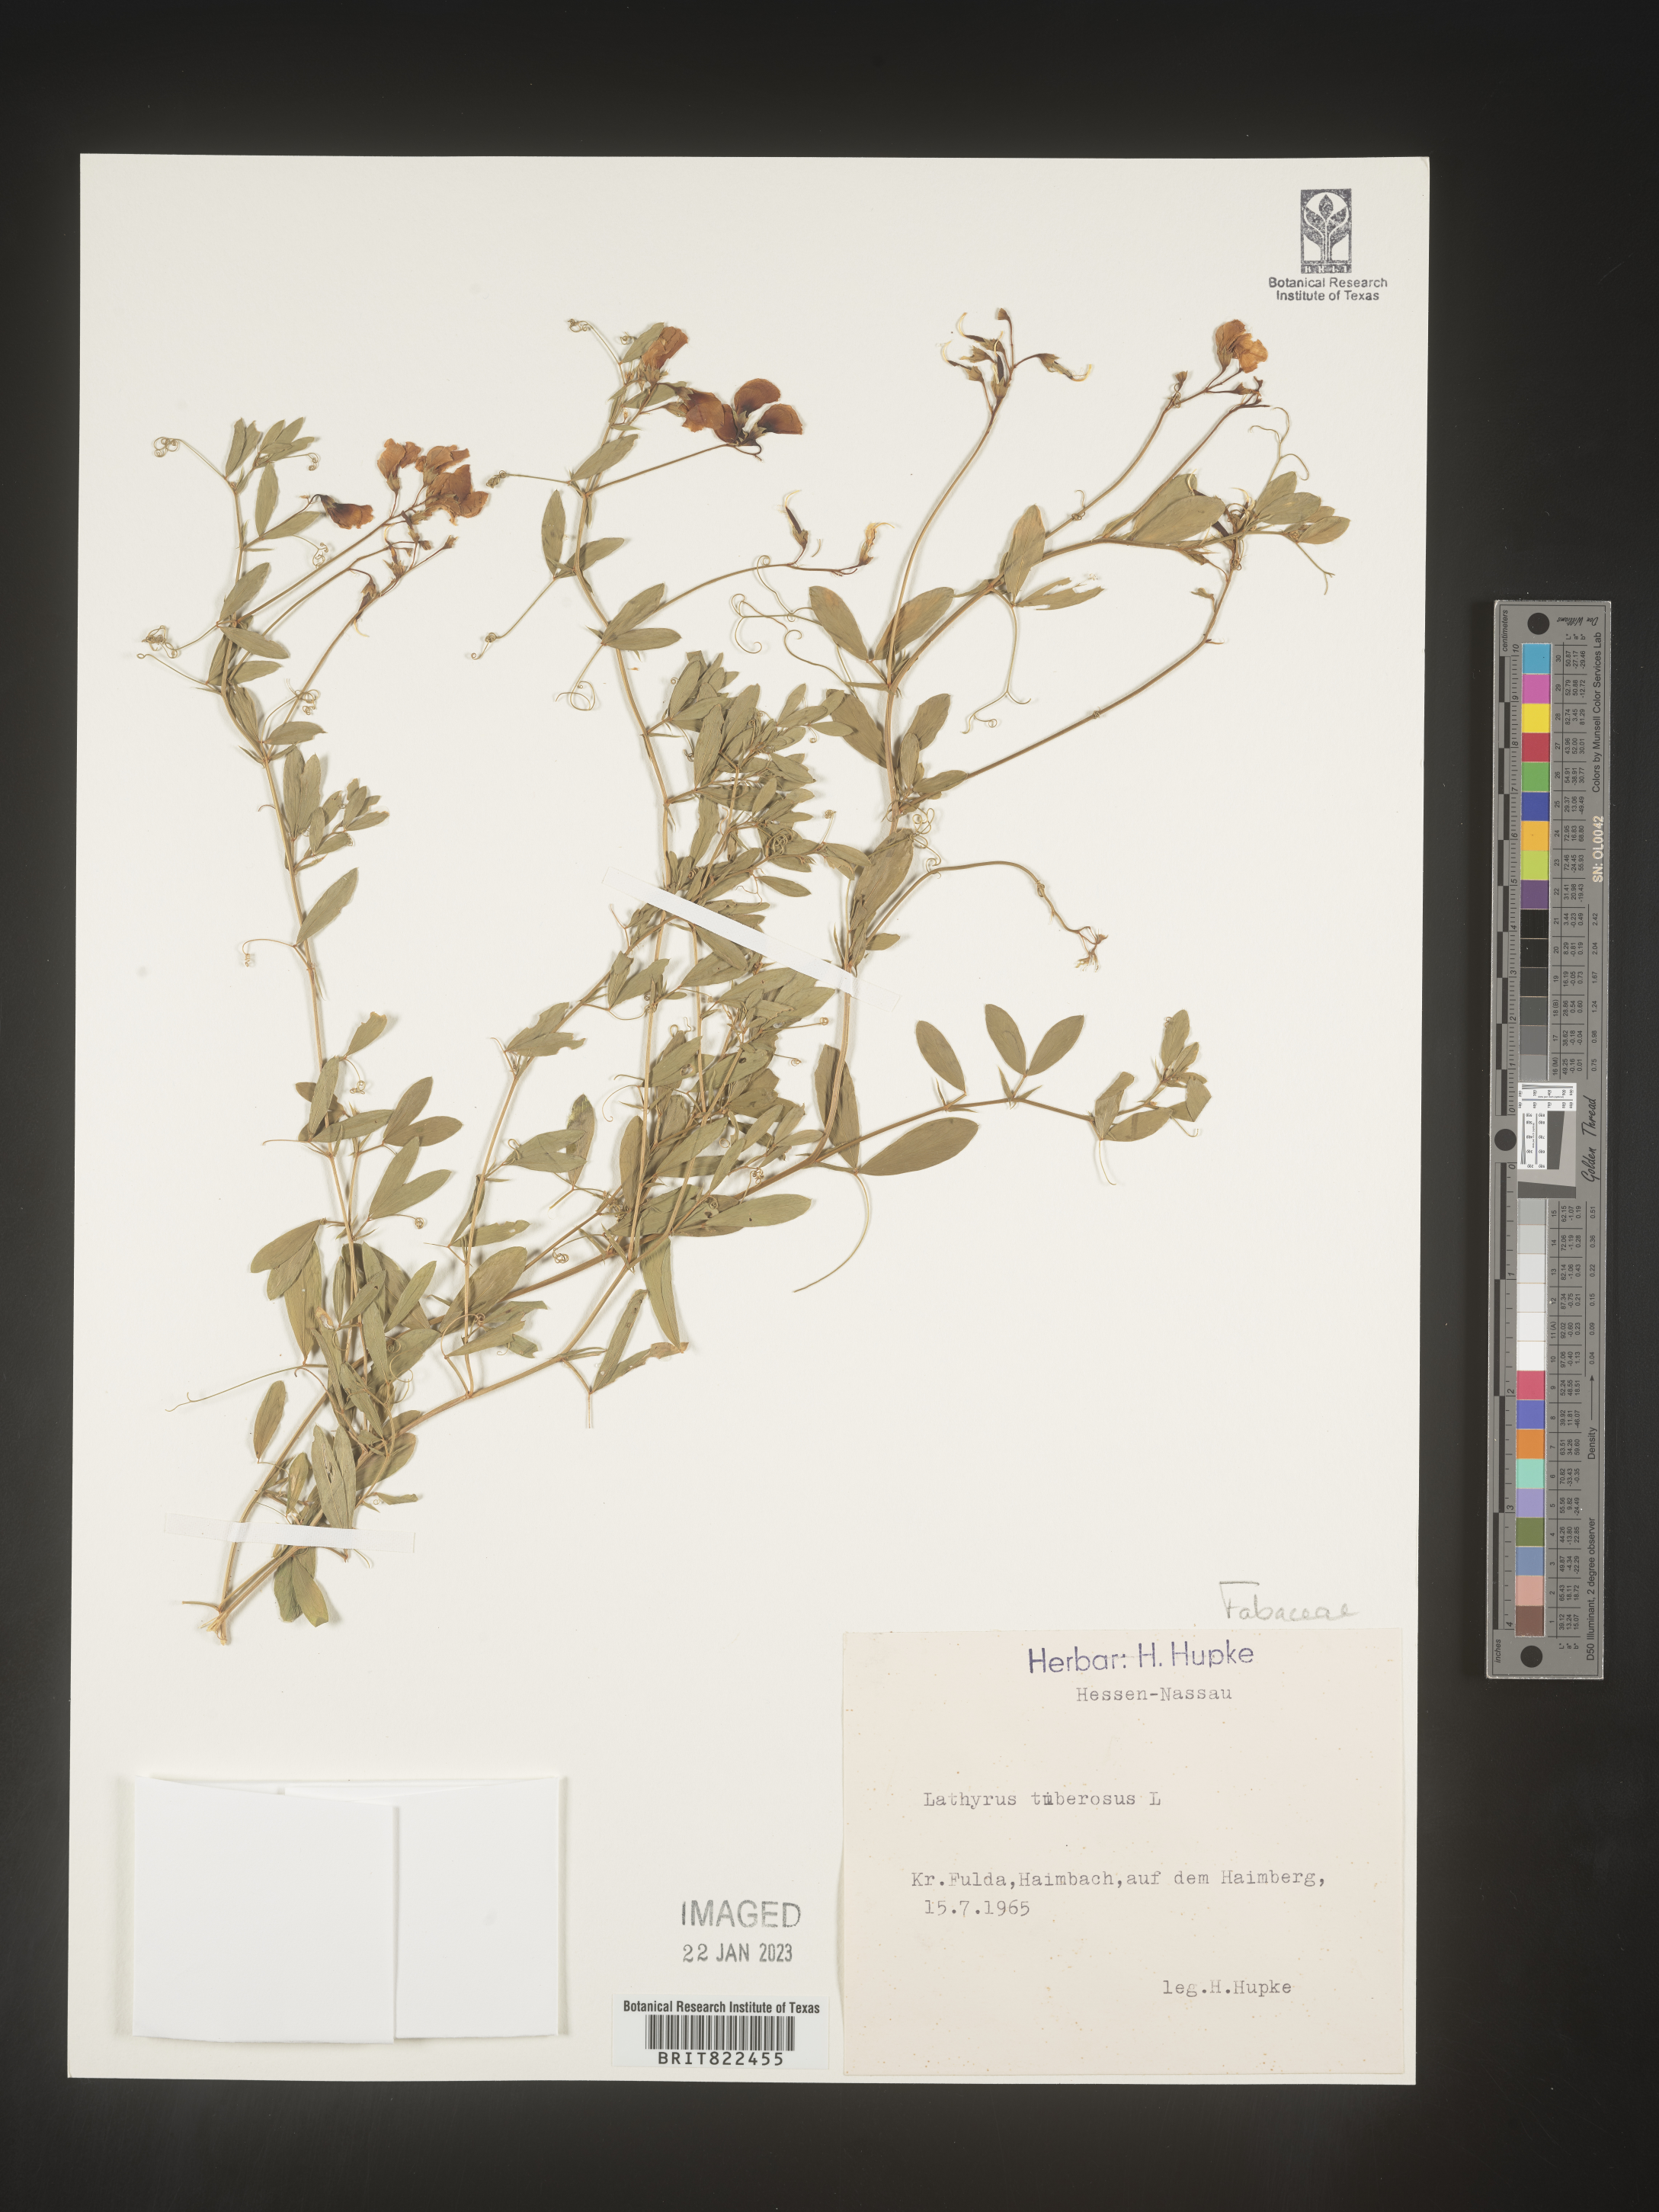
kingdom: Plantae
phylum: Tracheophyta
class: Magnoliopsida
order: Fabales
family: Fabaceae
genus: Lathyrus
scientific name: Lathyrus
